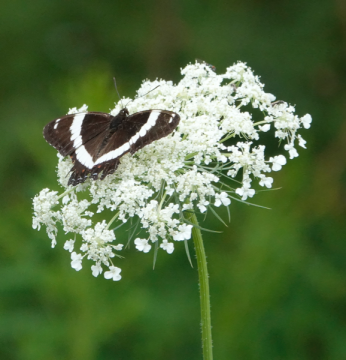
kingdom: Animalia
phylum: Arthropoda
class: Insecta
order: Lepidoptera
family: Nymphalidae
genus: Limenitis
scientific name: Limenitis arthemis
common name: Red-spotted Admiral
